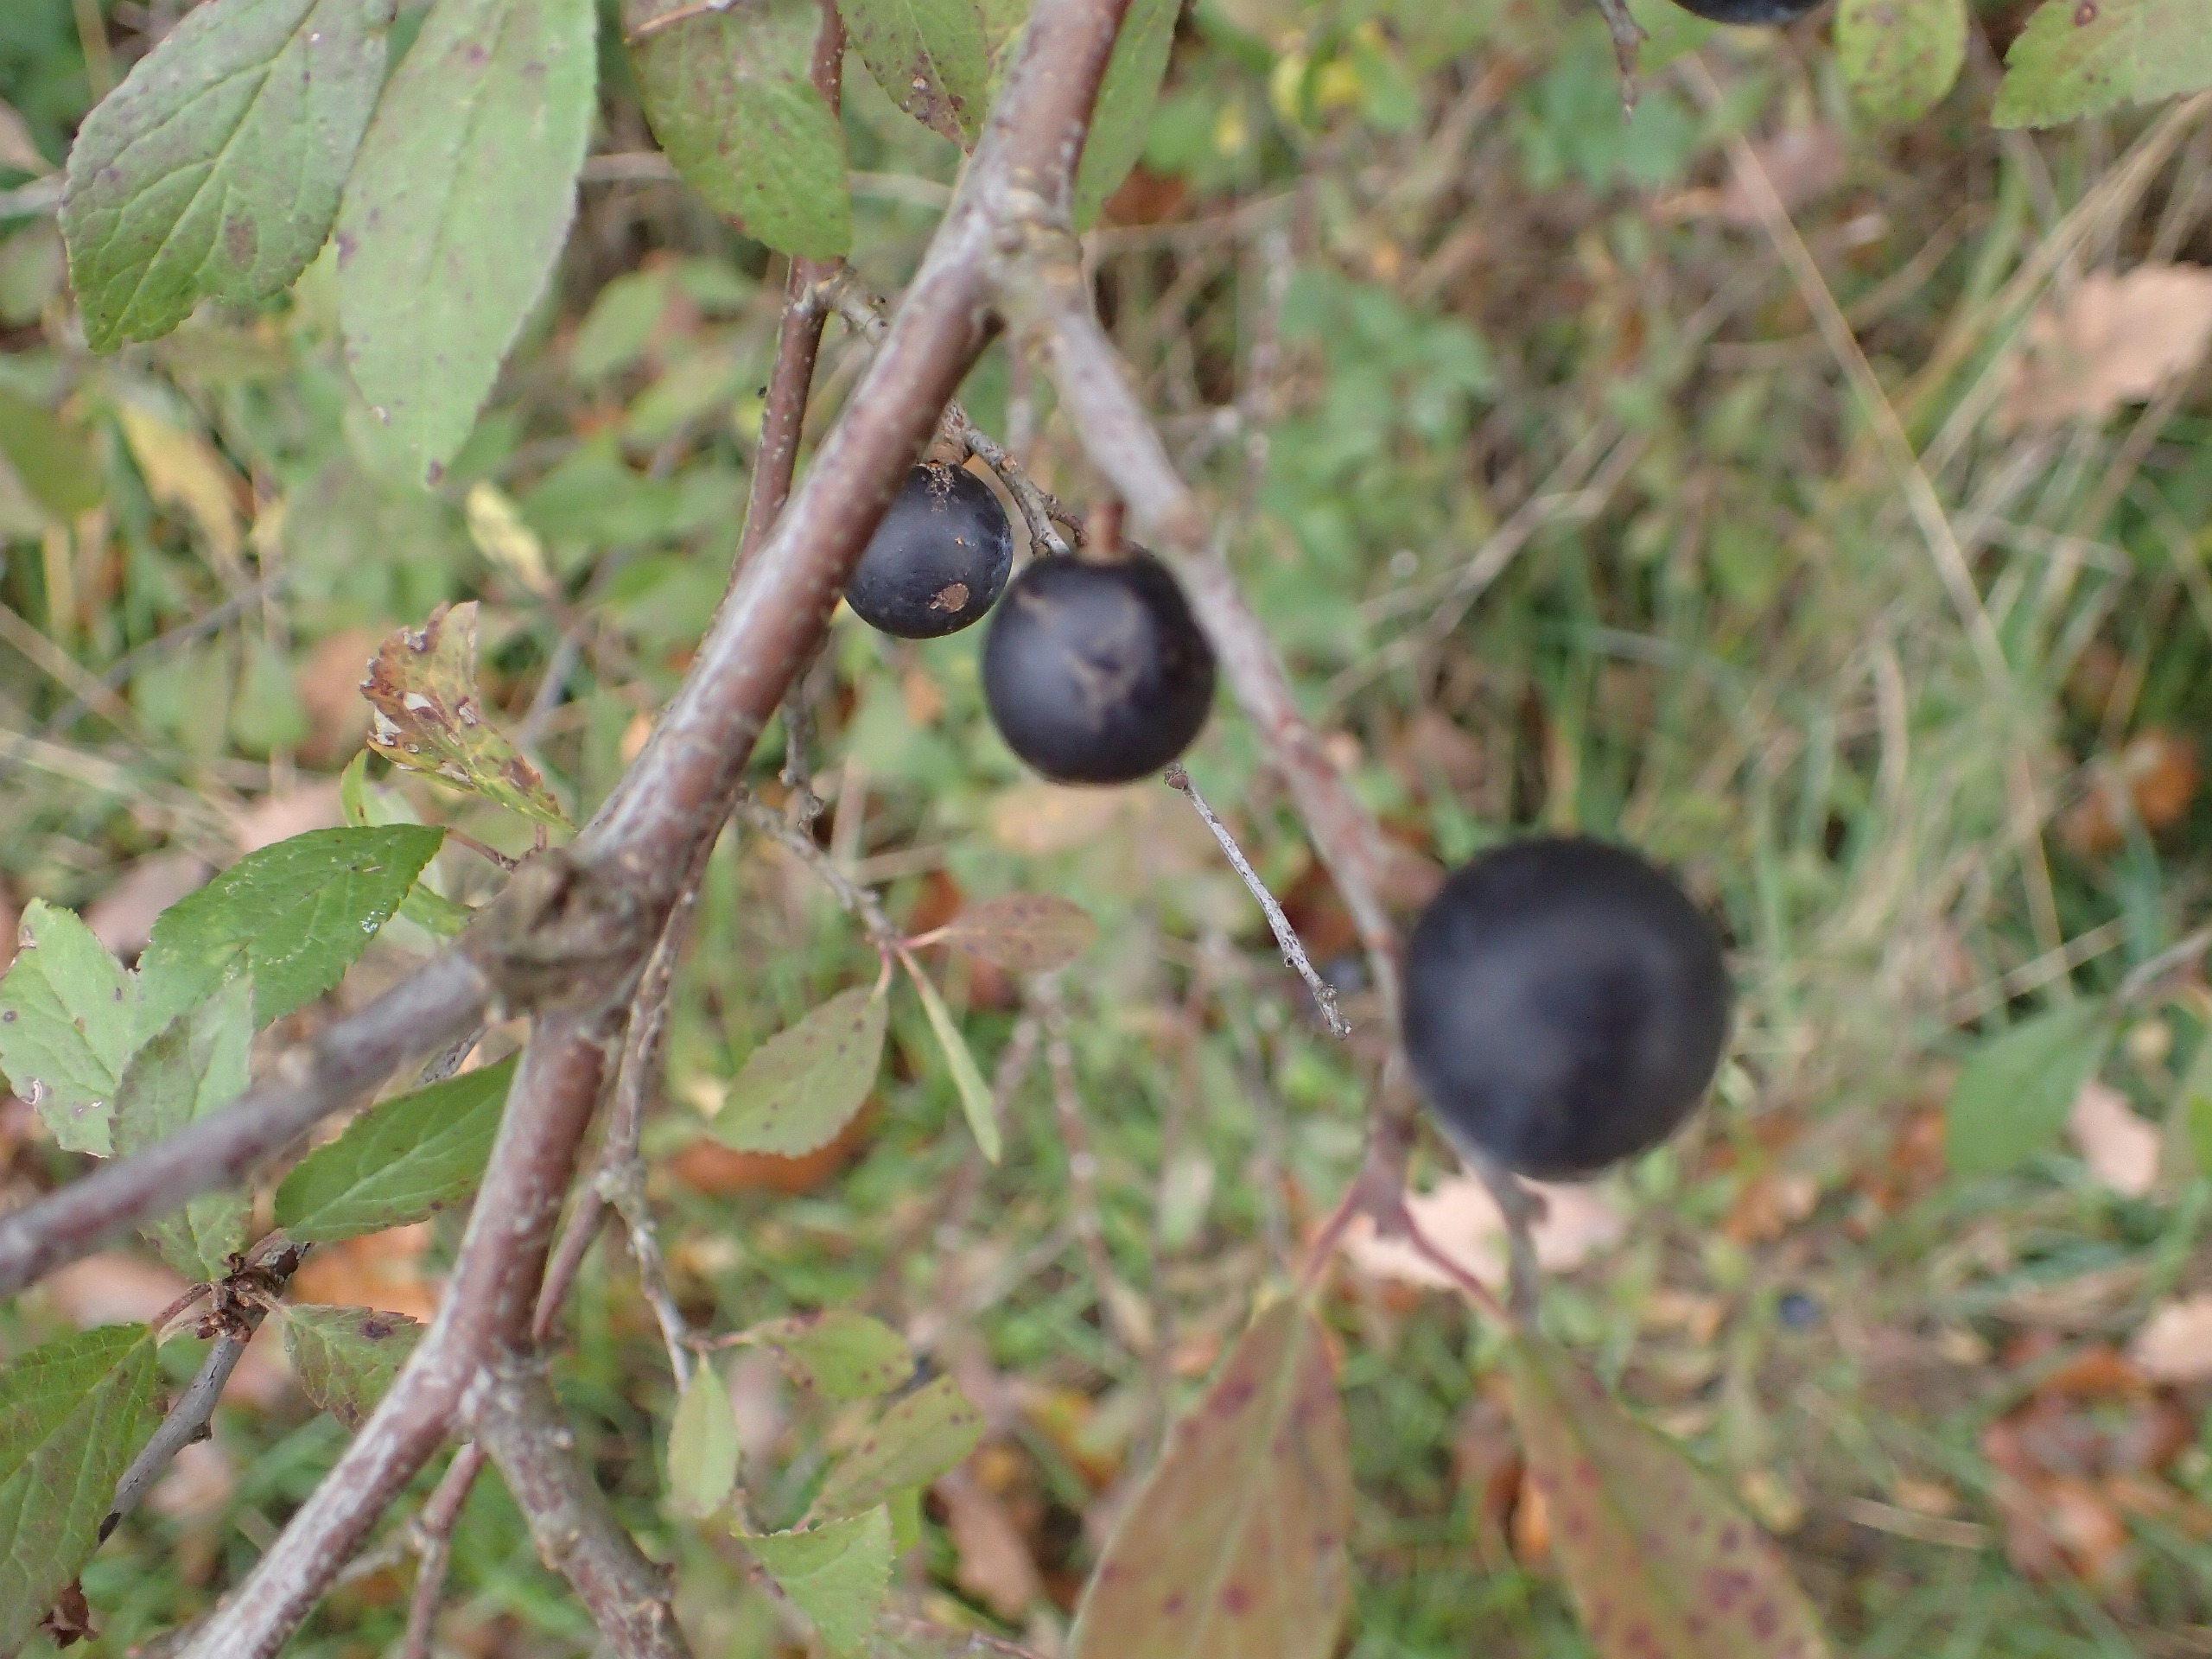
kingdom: Plantae
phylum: Tracheophyta
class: Magnoliopsida
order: Rosales
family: Rosaceae
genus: Prunus
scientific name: Prunus spinosa
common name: Slåen
